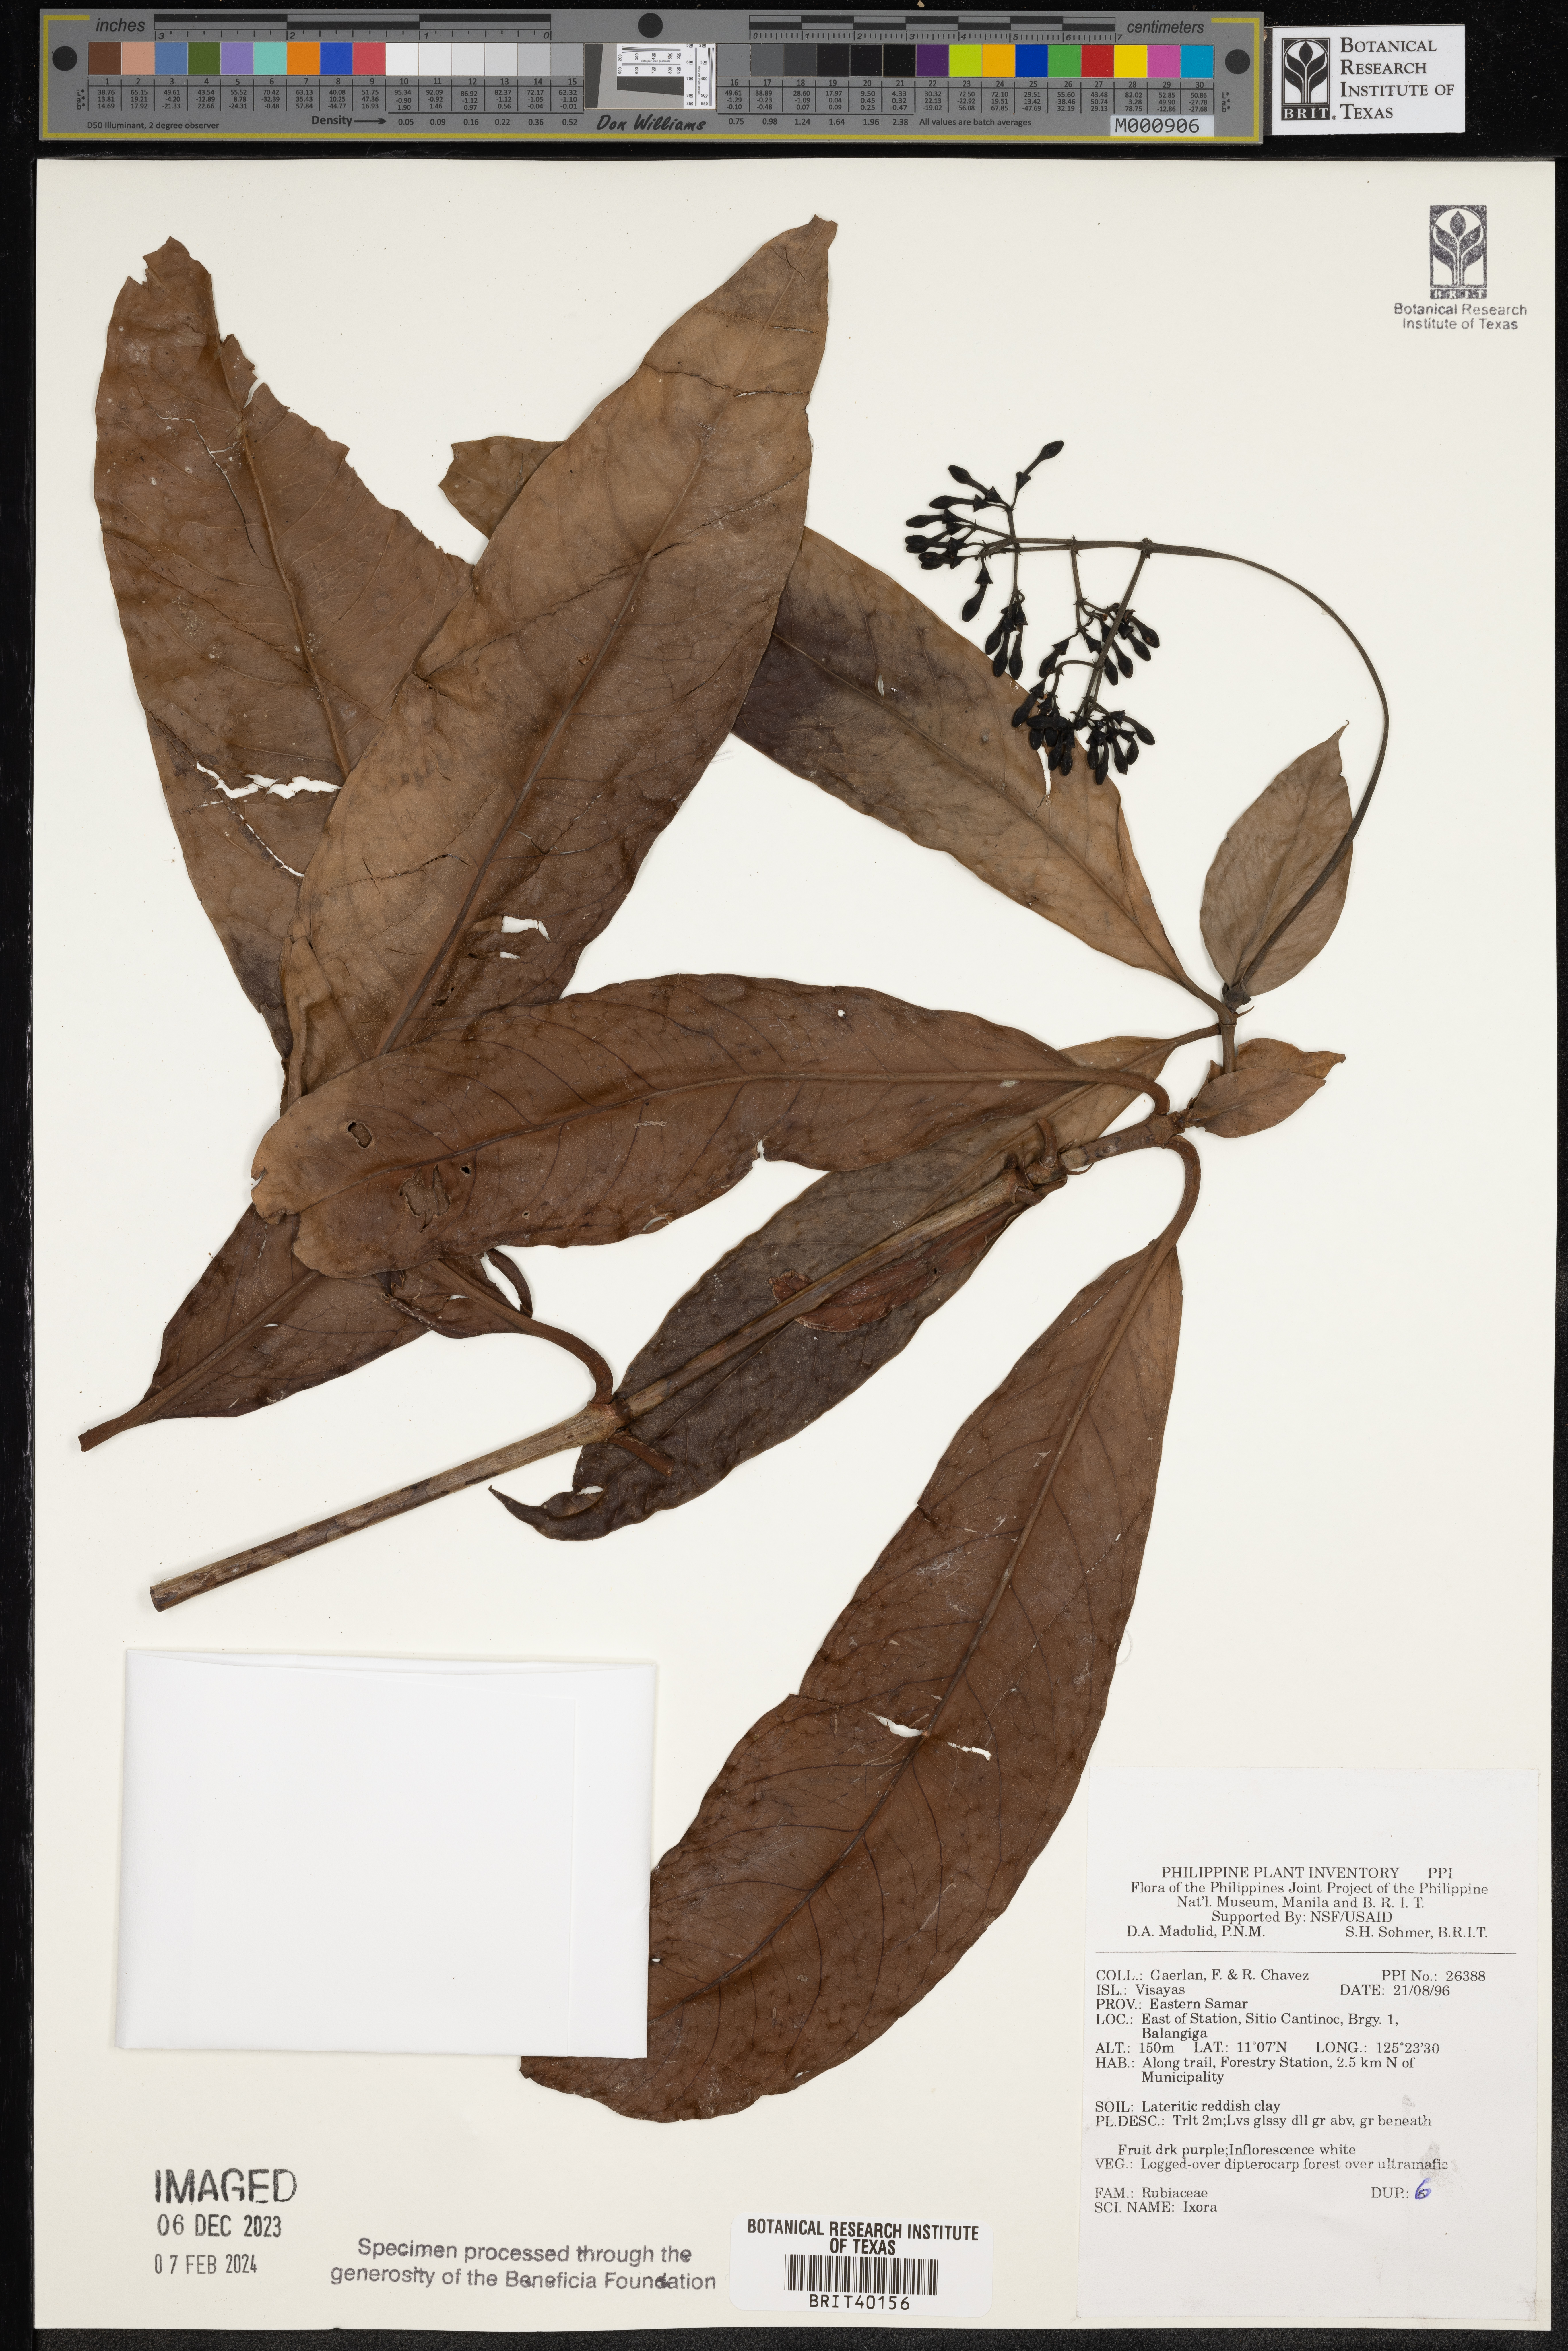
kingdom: Plantae
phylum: Tracheophyta
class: Magnoliopsida
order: Gentianales
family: Rubiaceae
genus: Ixora
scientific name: Ixora
